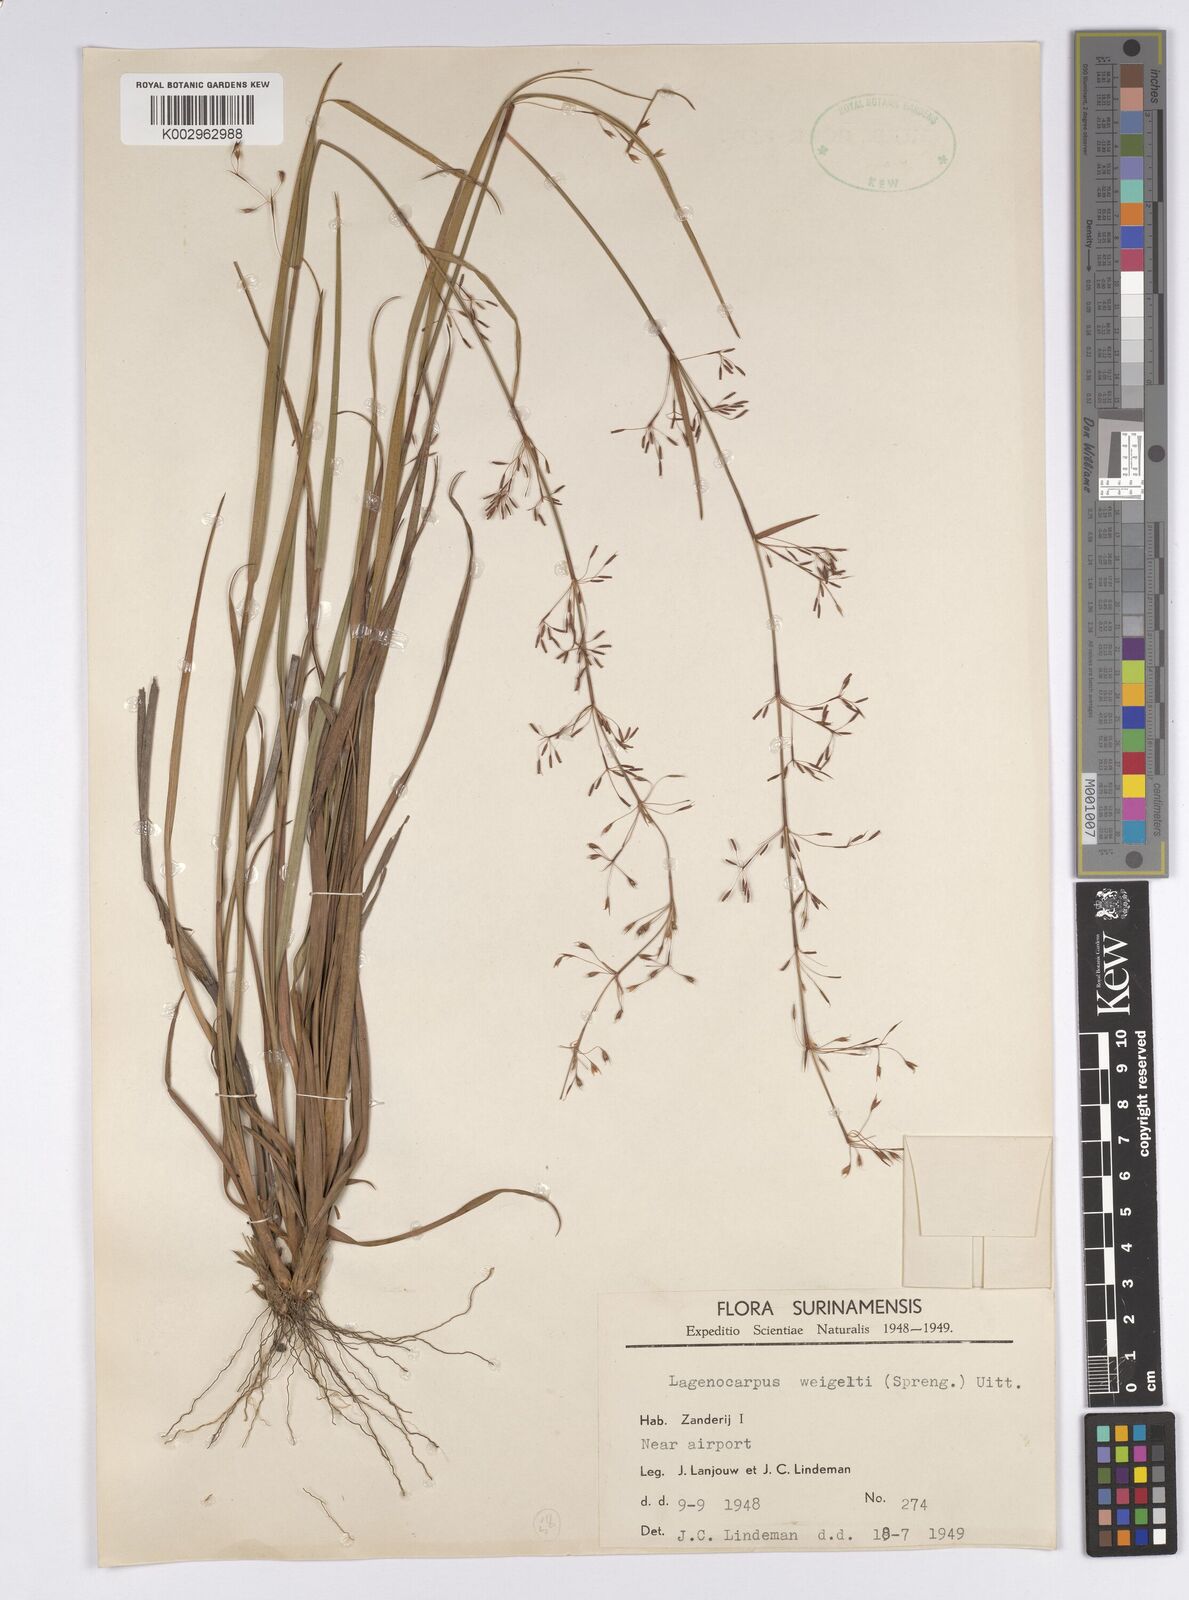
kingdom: Plantae
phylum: Tracheophyta
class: Liliopsida
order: Poales
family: Cyperaceae
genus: Cryptangium
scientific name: Cryptangium verticillatum
